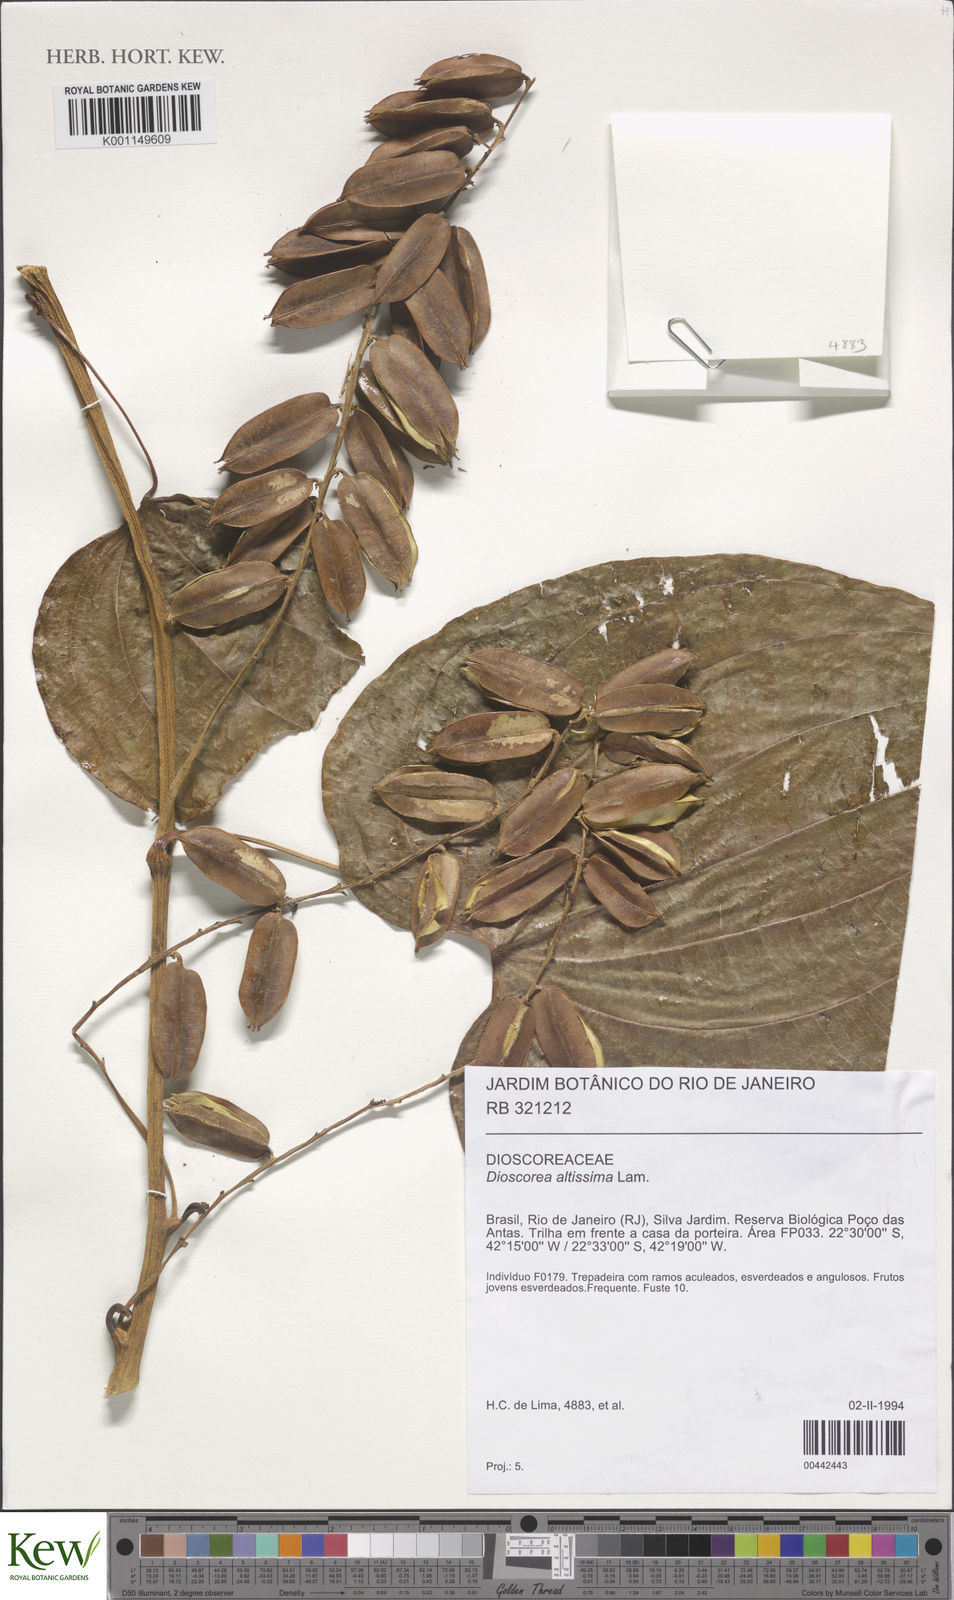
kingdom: Plantae
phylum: Tracheophyta
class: Liliopsida
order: Dioscoreales
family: Dioscoreaceae
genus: Dioscorea
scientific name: Dioscorea chondrocarpa
